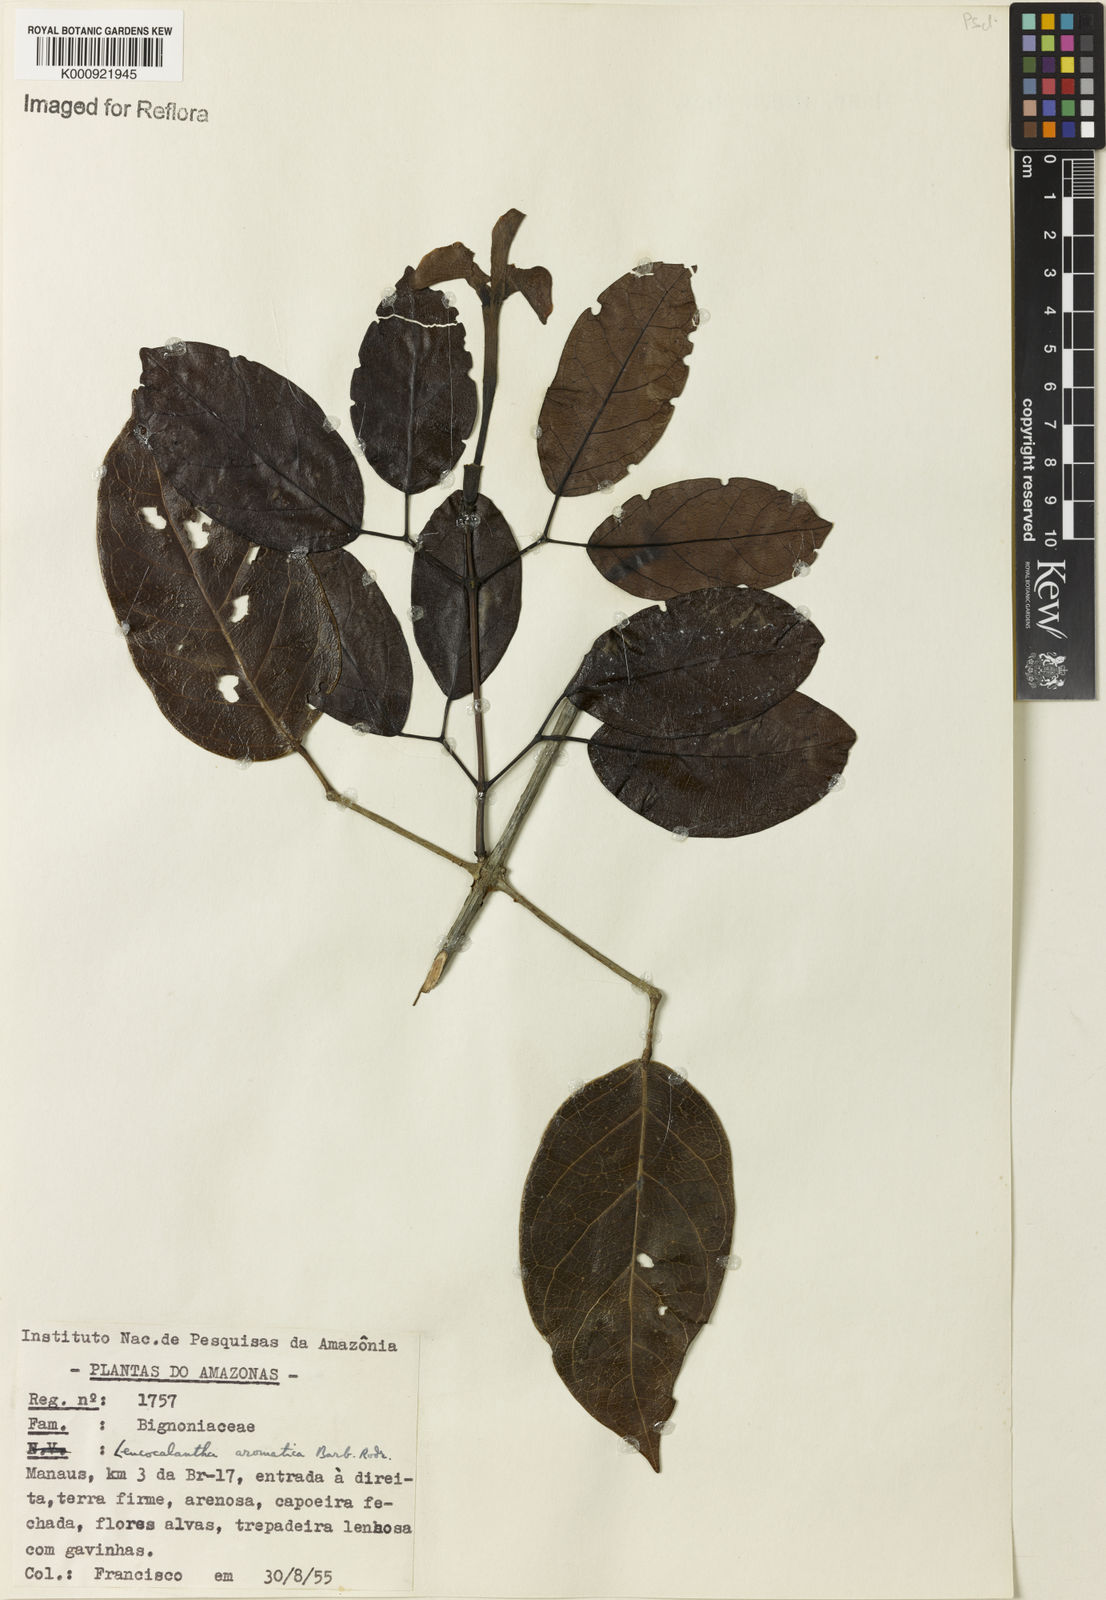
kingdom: Plantae
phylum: Tracheophyta
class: Magnoliopsida
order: Lamiales
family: Bignoniaceae
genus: Pachyptera
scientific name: Pachyptera aromatica
